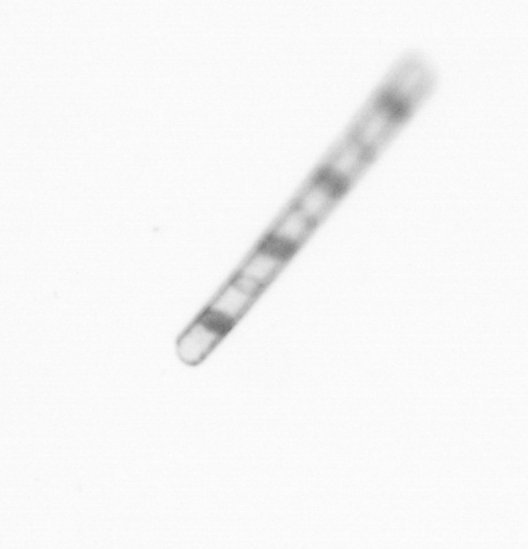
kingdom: Chromista
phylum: Ochrophyta
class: Bacillariophyceae
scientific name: Bacillariophyceae
